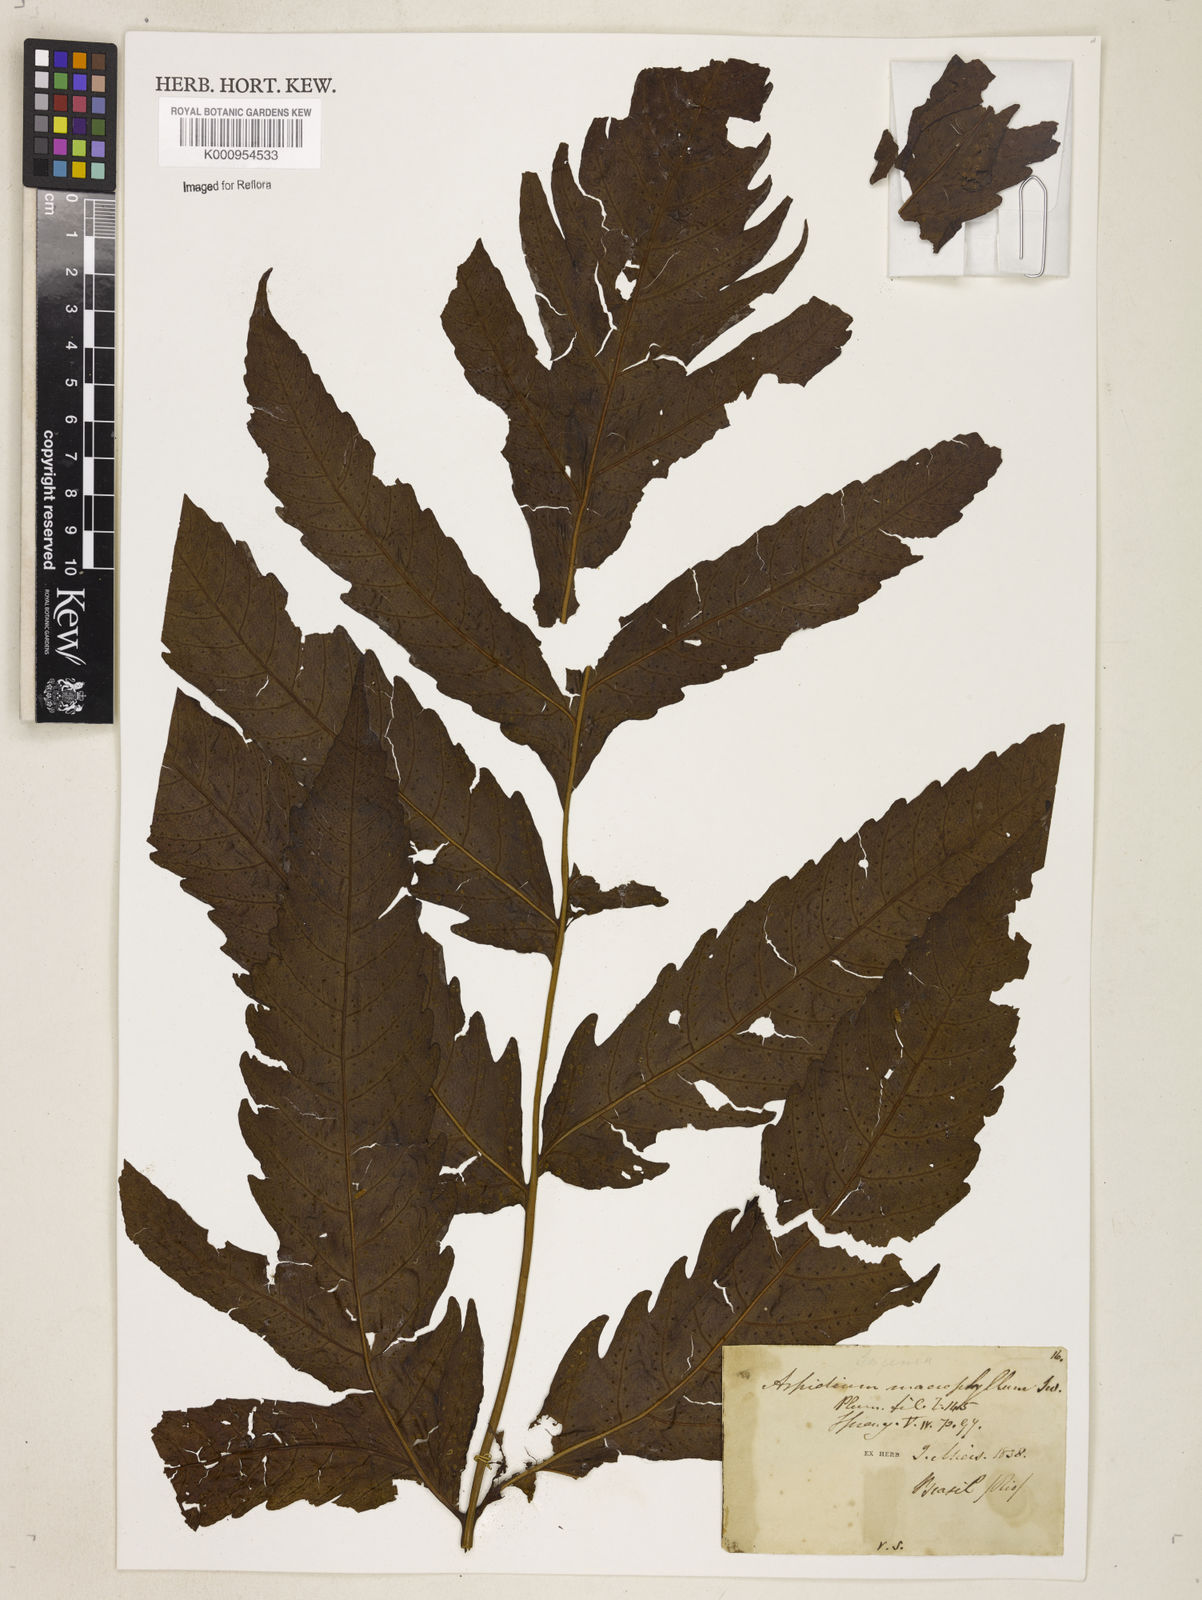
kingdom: Plantae
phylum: Tracheophyta
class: Polypodiopsida
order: Polypodiales
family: Tectariaceae
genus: Tectaria
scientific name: Tectaria incisa
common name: Incised halberd fern
